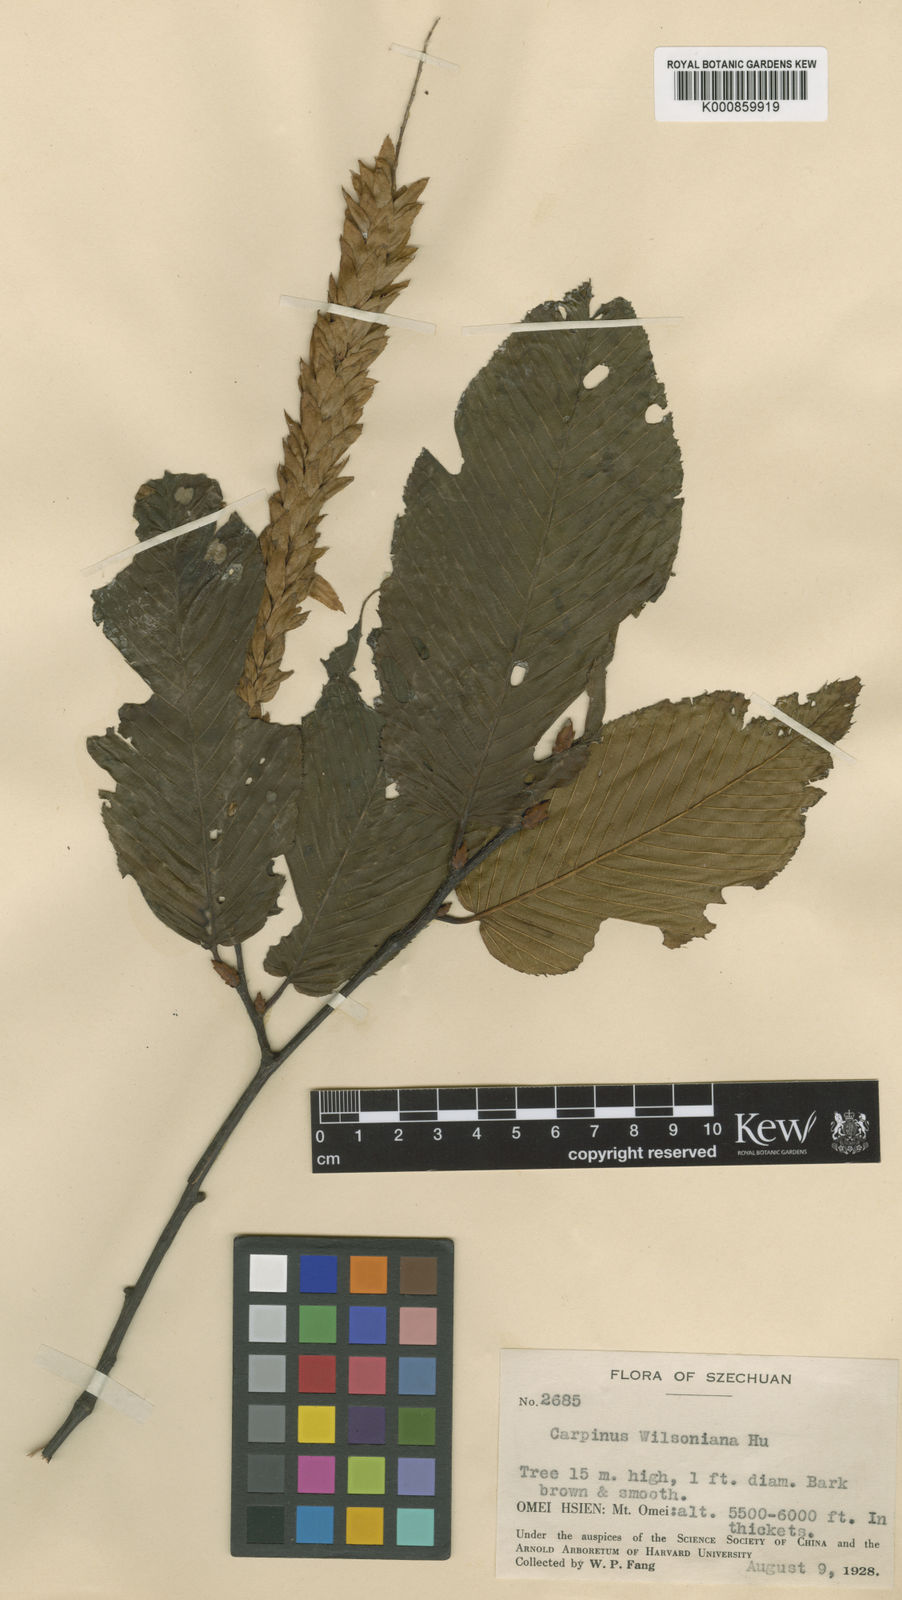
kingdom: Plantae
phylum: Tracheophyta
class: Magnoliopsida
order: Fagales
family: Betulaceae
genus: Carpinus
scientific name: Carpinus fangiana
